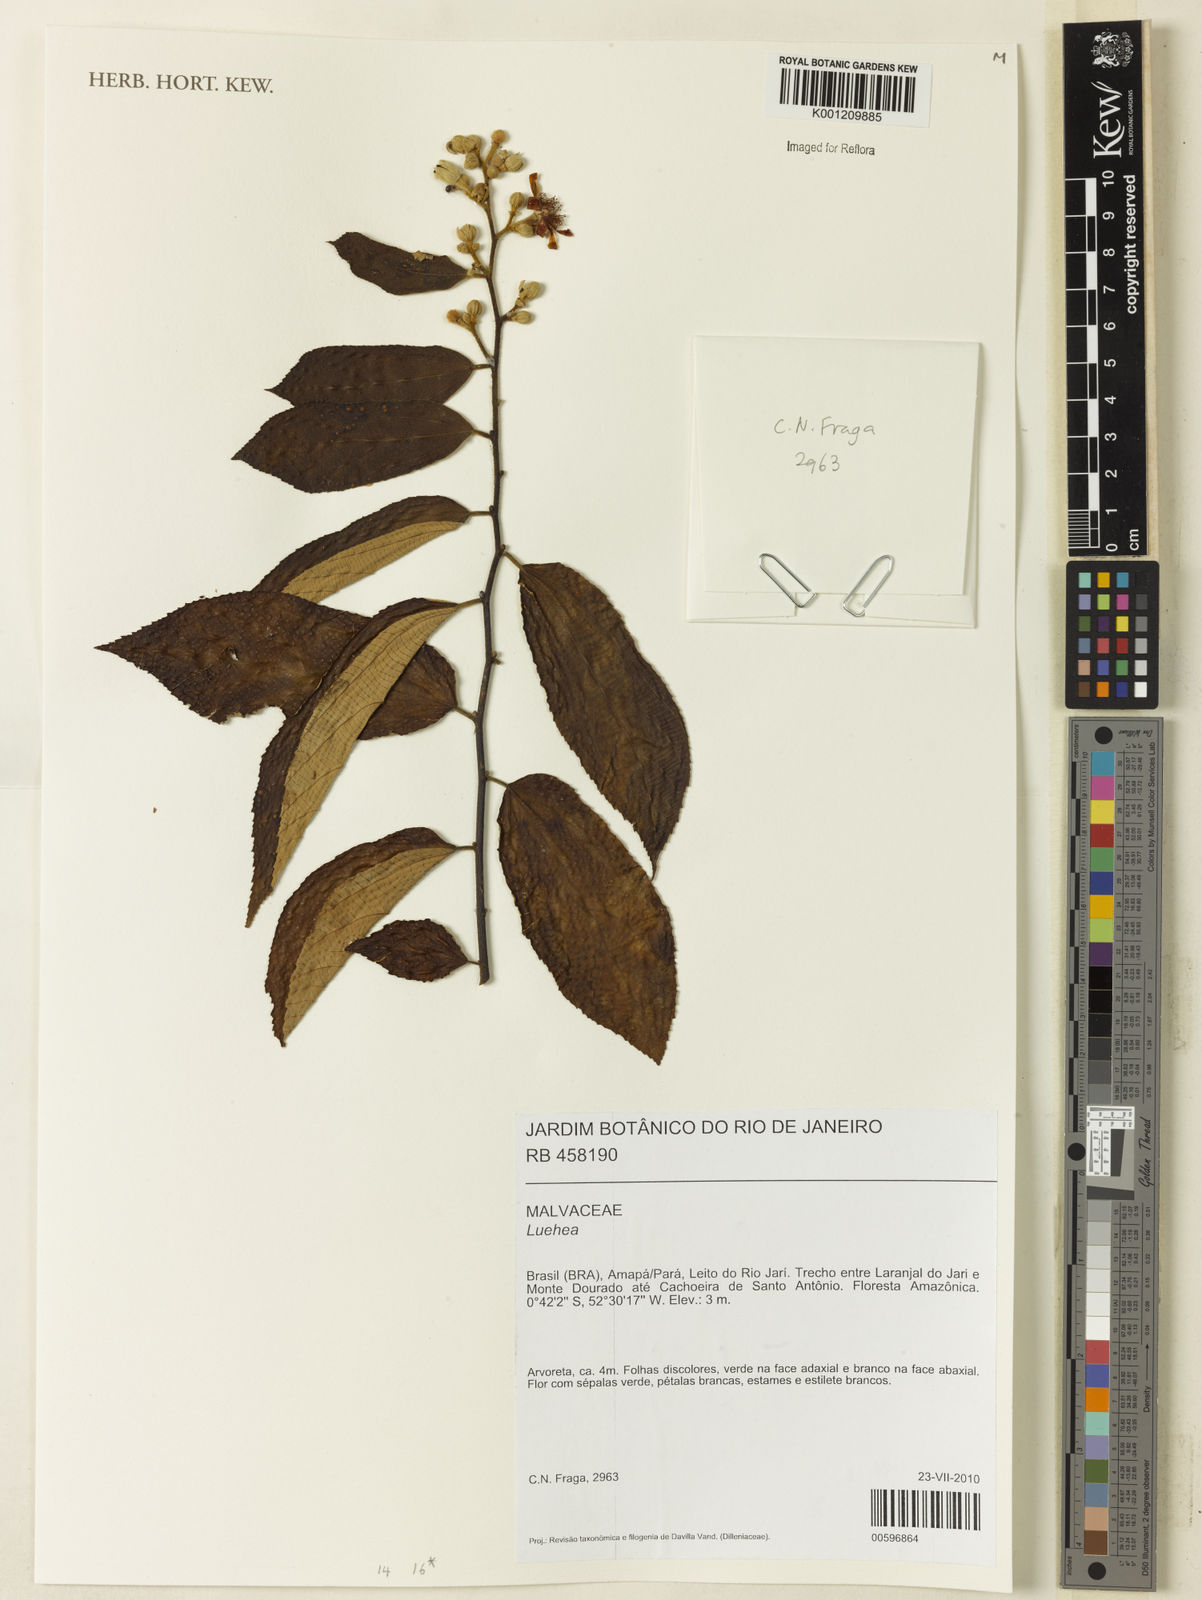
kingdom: Plantae
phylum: Tracheophyta
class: Magnoliopsida
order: Malvales
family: Malvaceae
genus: Luehea
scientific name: Luehea
